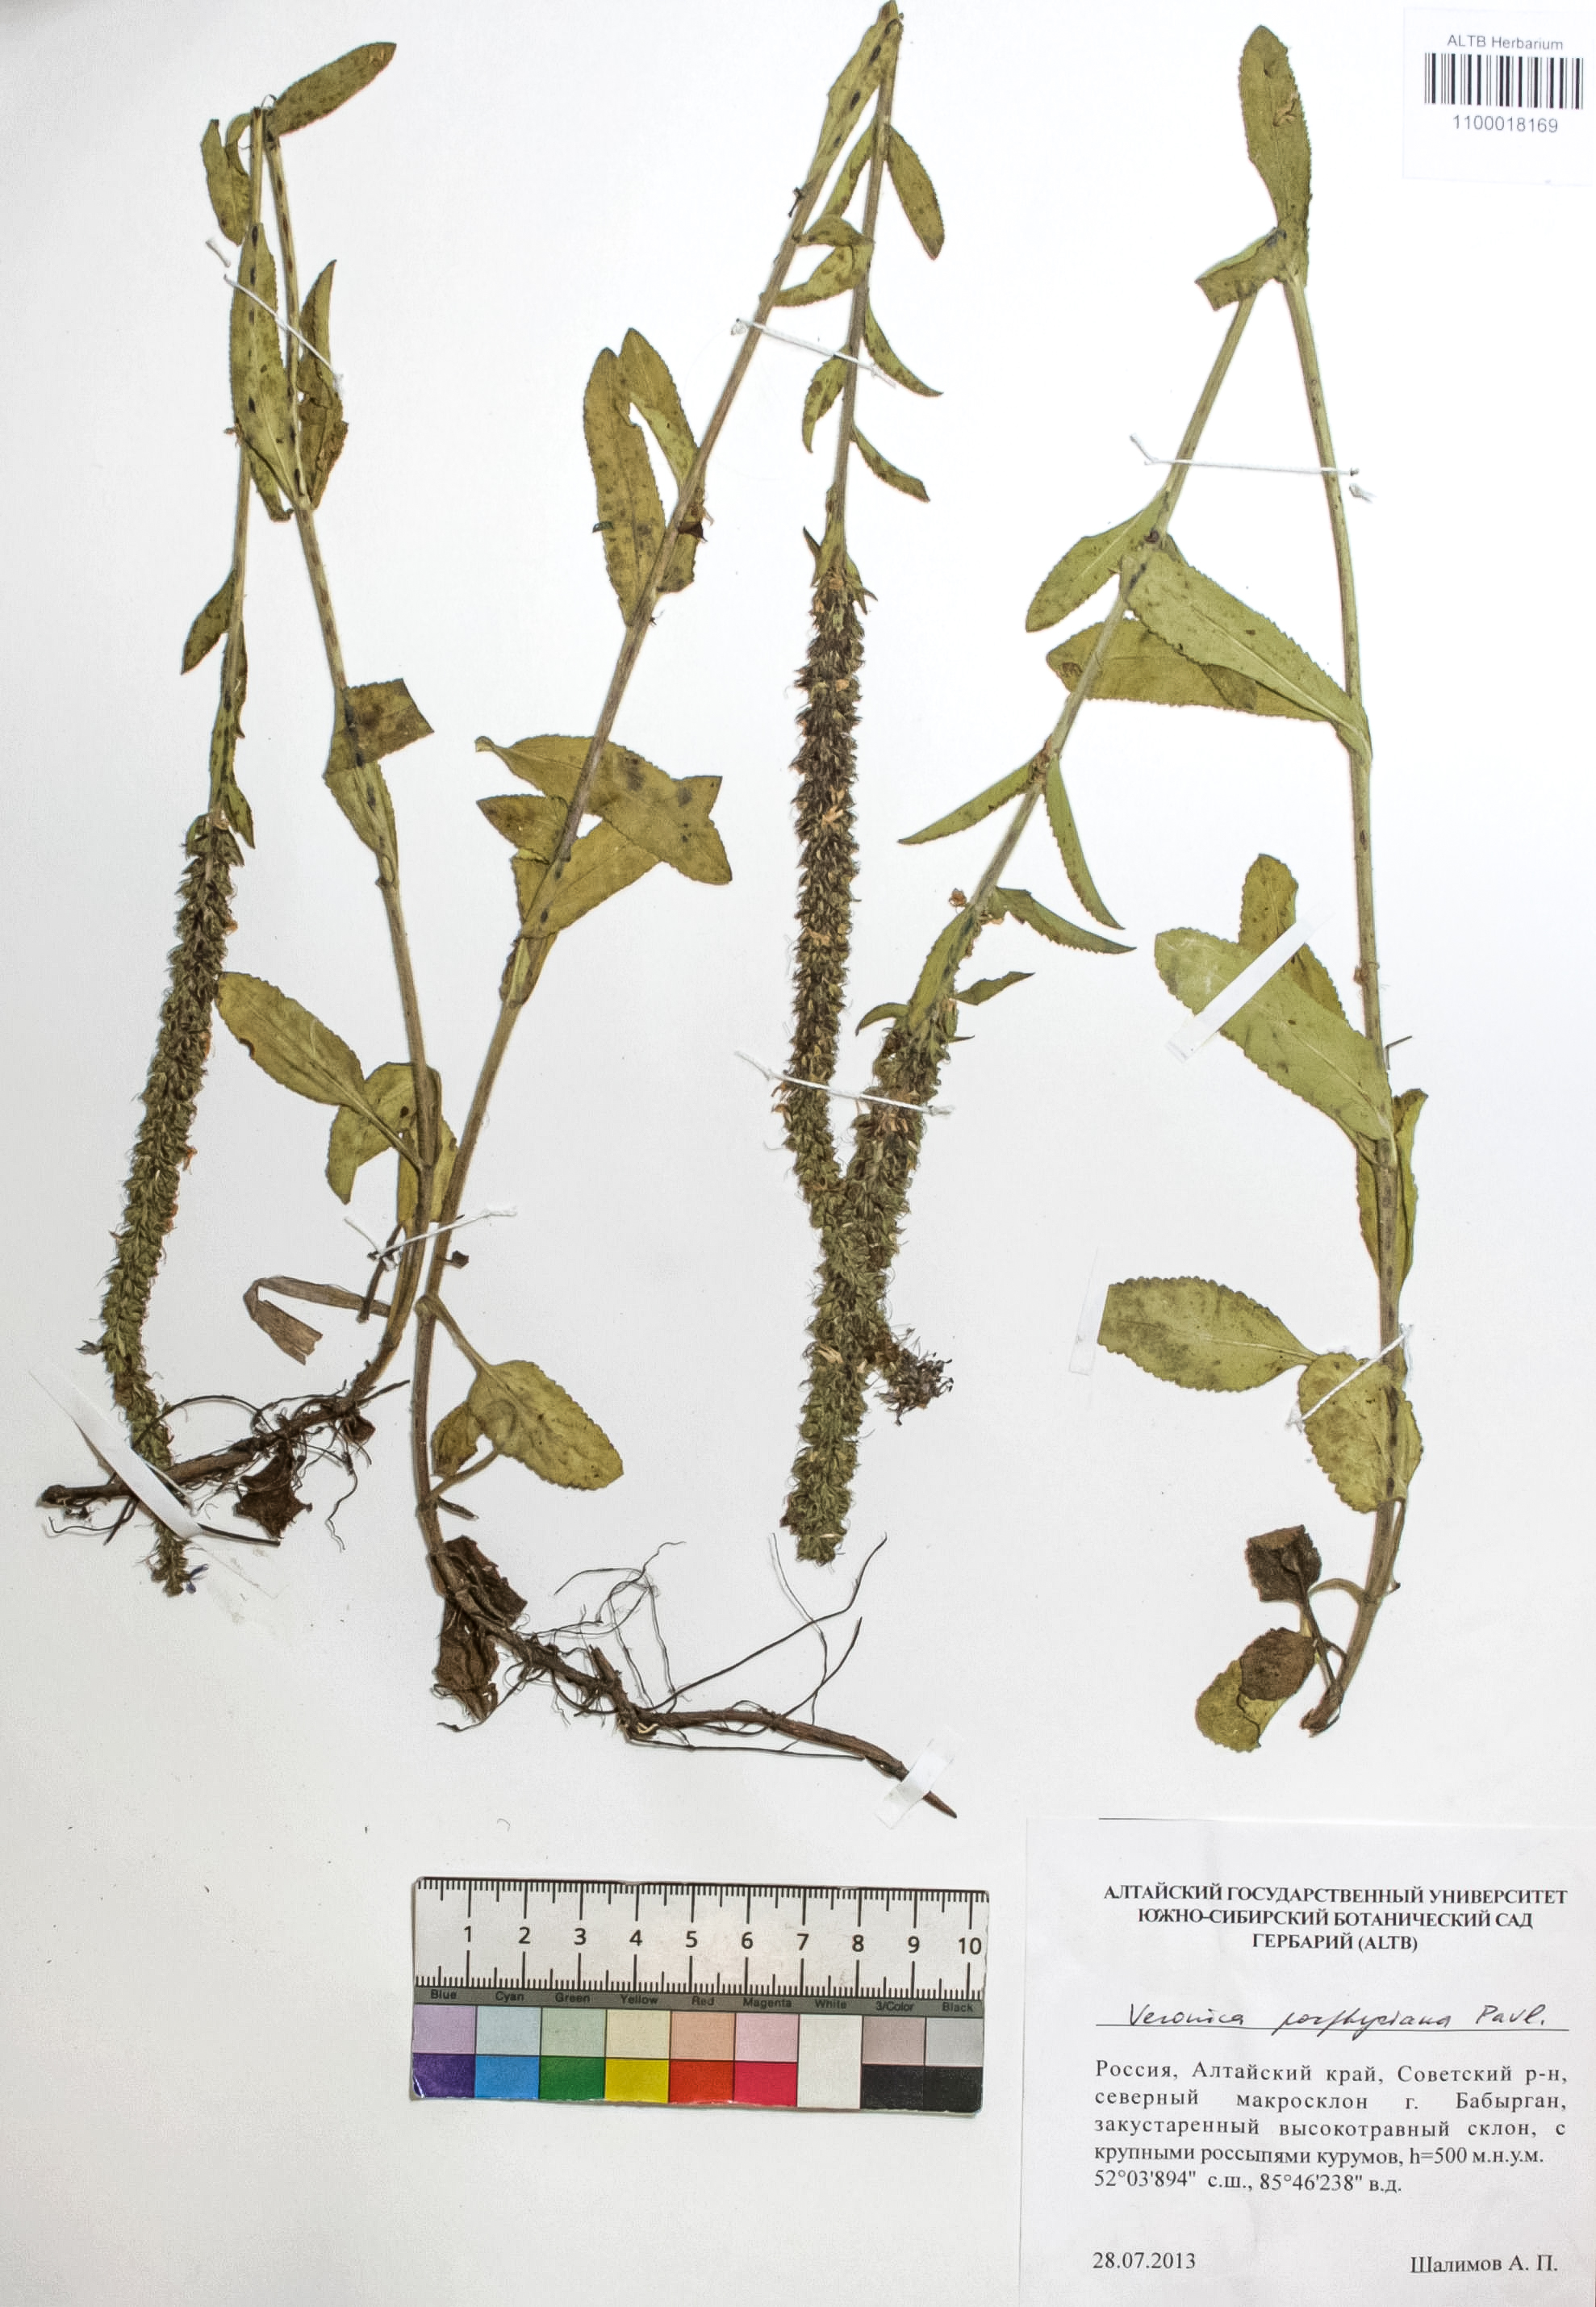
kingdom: Plantae
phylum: Tracheophyta
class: Magnoliopsida
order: Lamiales
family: Plantaginaceae
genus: Veronica
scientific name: Veronica porphyriana
